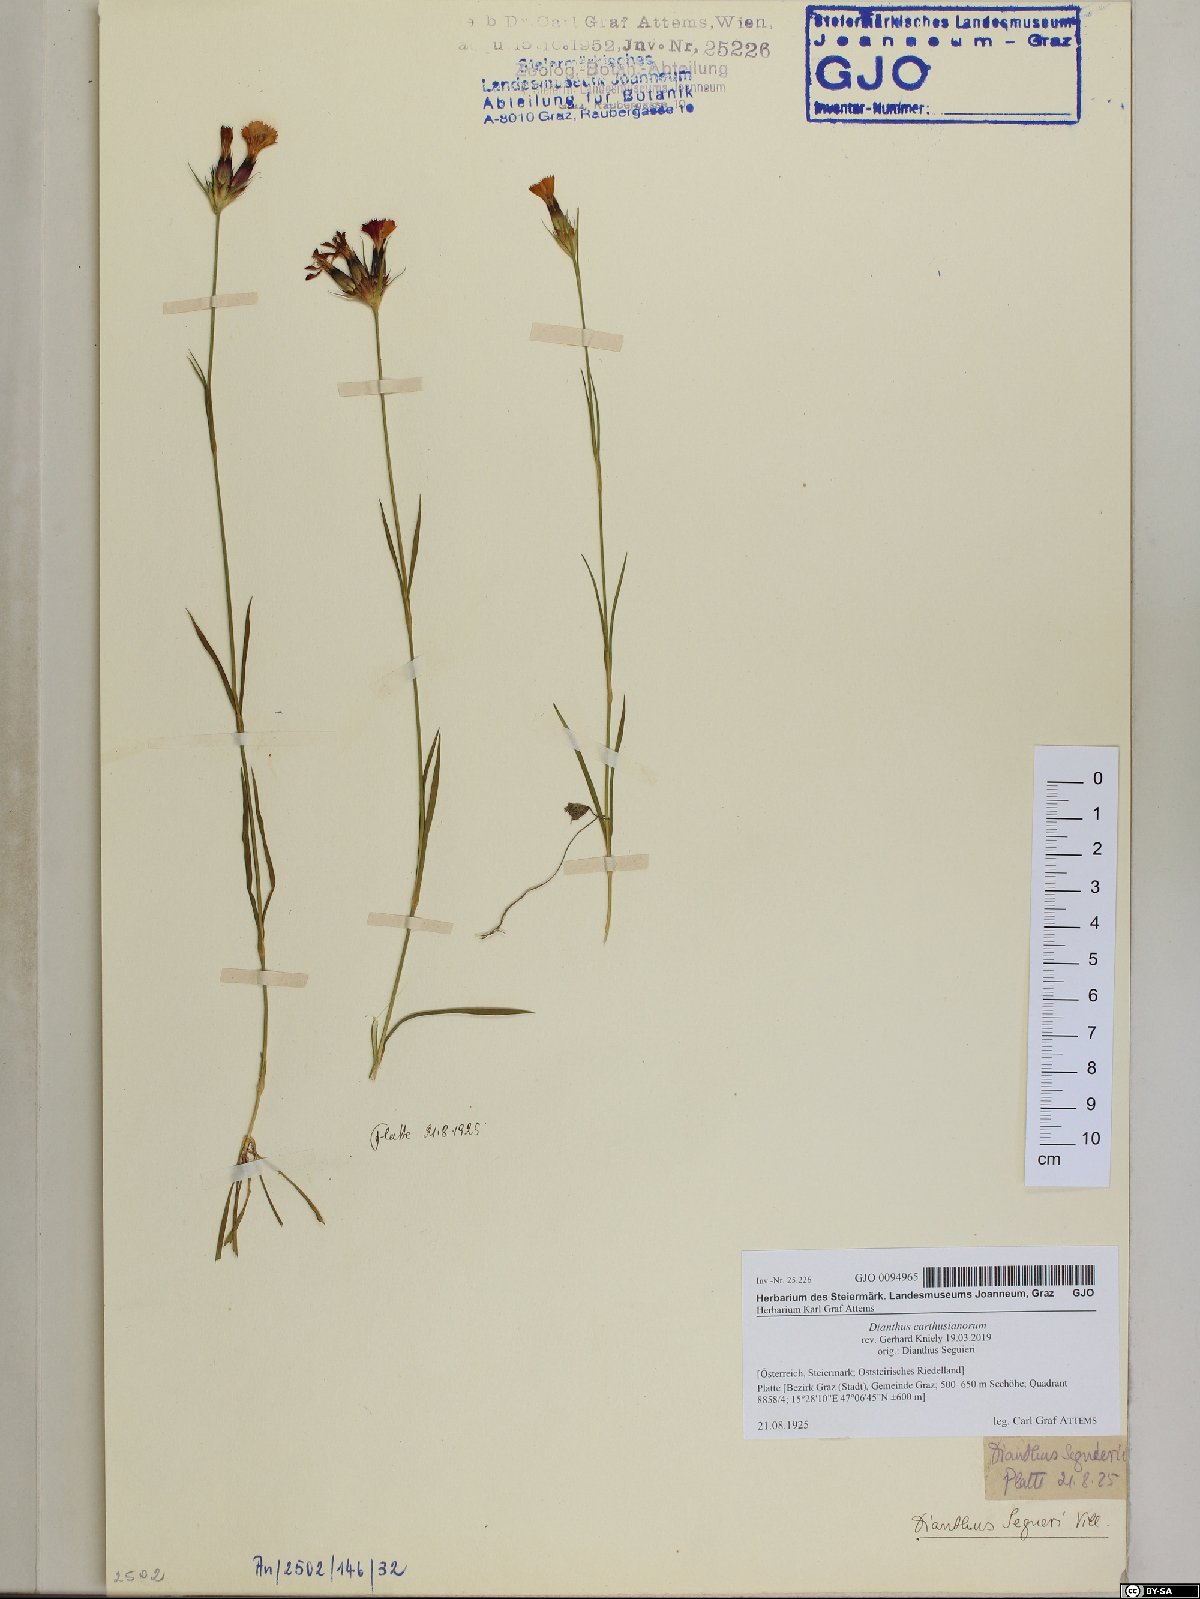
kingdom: Plantae
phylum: Tracheophyta
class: Magnoliopsida
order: Caryophyllales
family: Caryophyllaceae
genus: Dianthus
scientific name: Dianthus carthusianorum
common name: Carthusian pink
